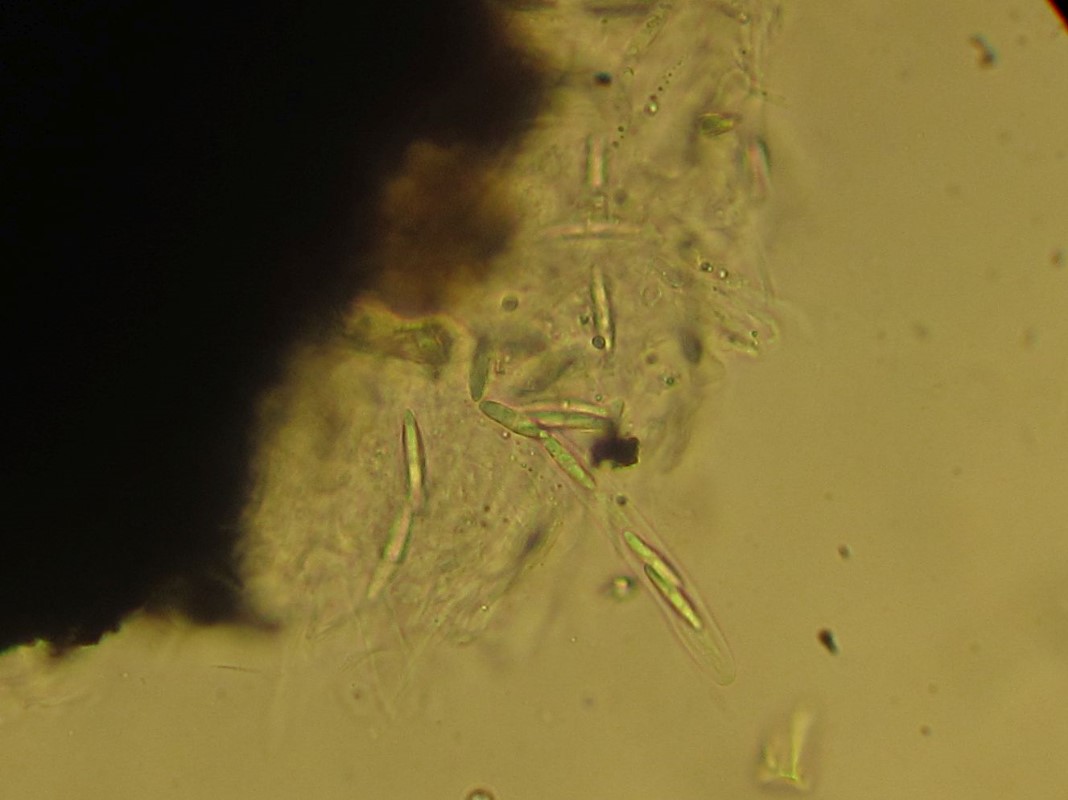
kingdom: Fungi
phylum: Ascomycota
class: Sordariomycetes
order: Chaetosphaeriales
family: Chaetosphaeriaceae
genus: Menispora
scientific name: Menispora caesia
